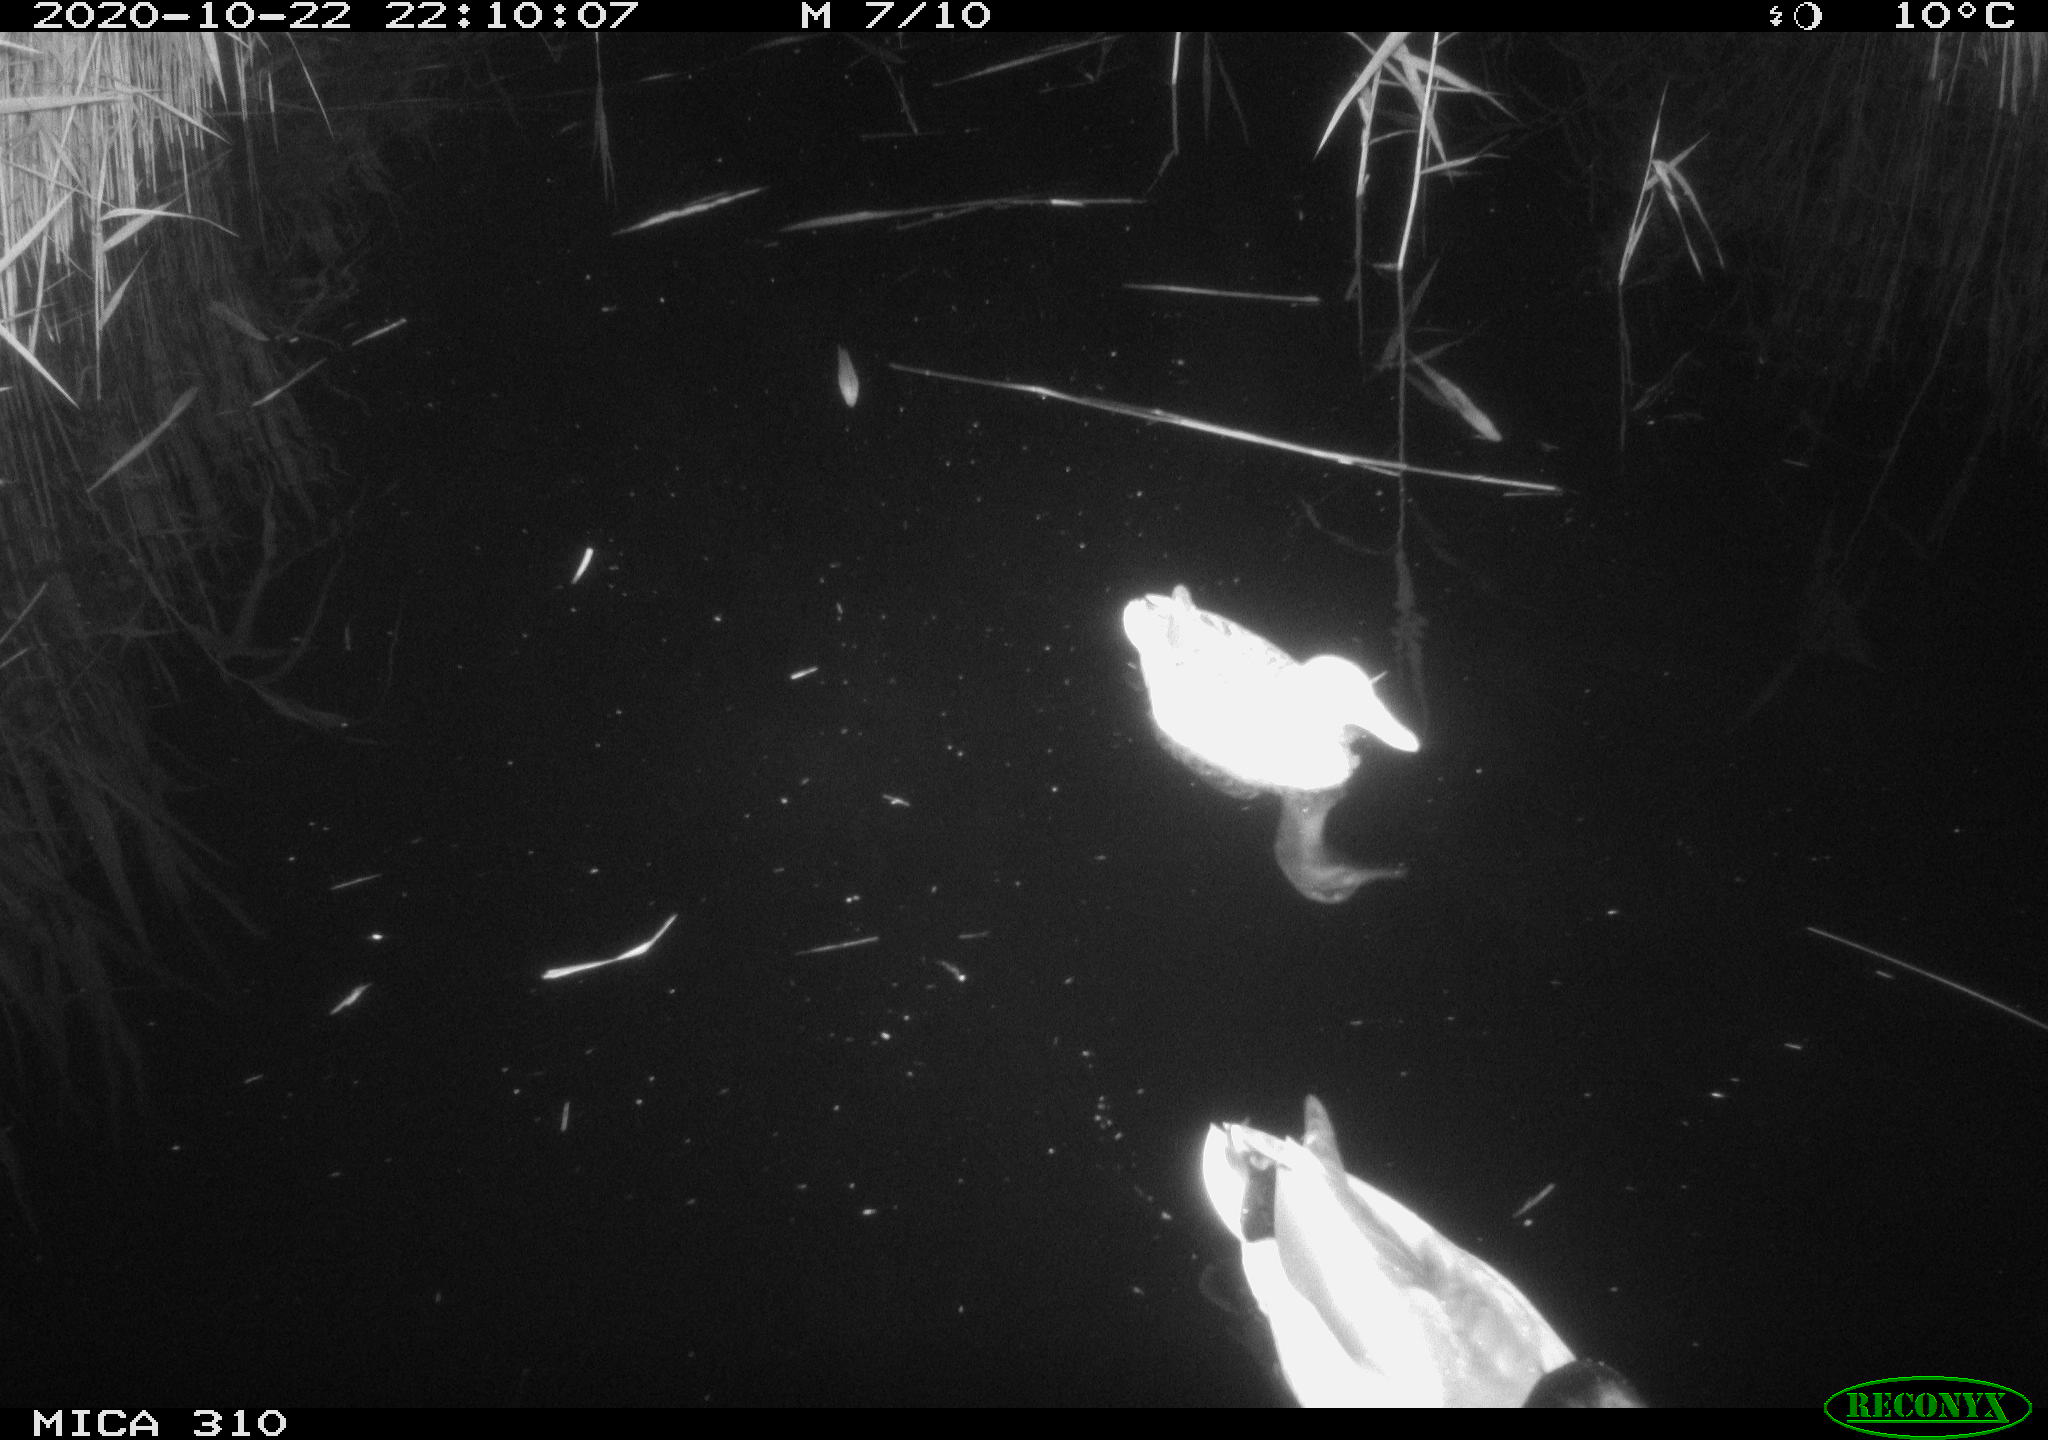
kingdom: Animalia
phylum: Chordata
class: Aves
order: Gruiformes
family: Rallidae
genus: Gallinula
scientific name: Gallinula chloropus
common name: Common moorhen
